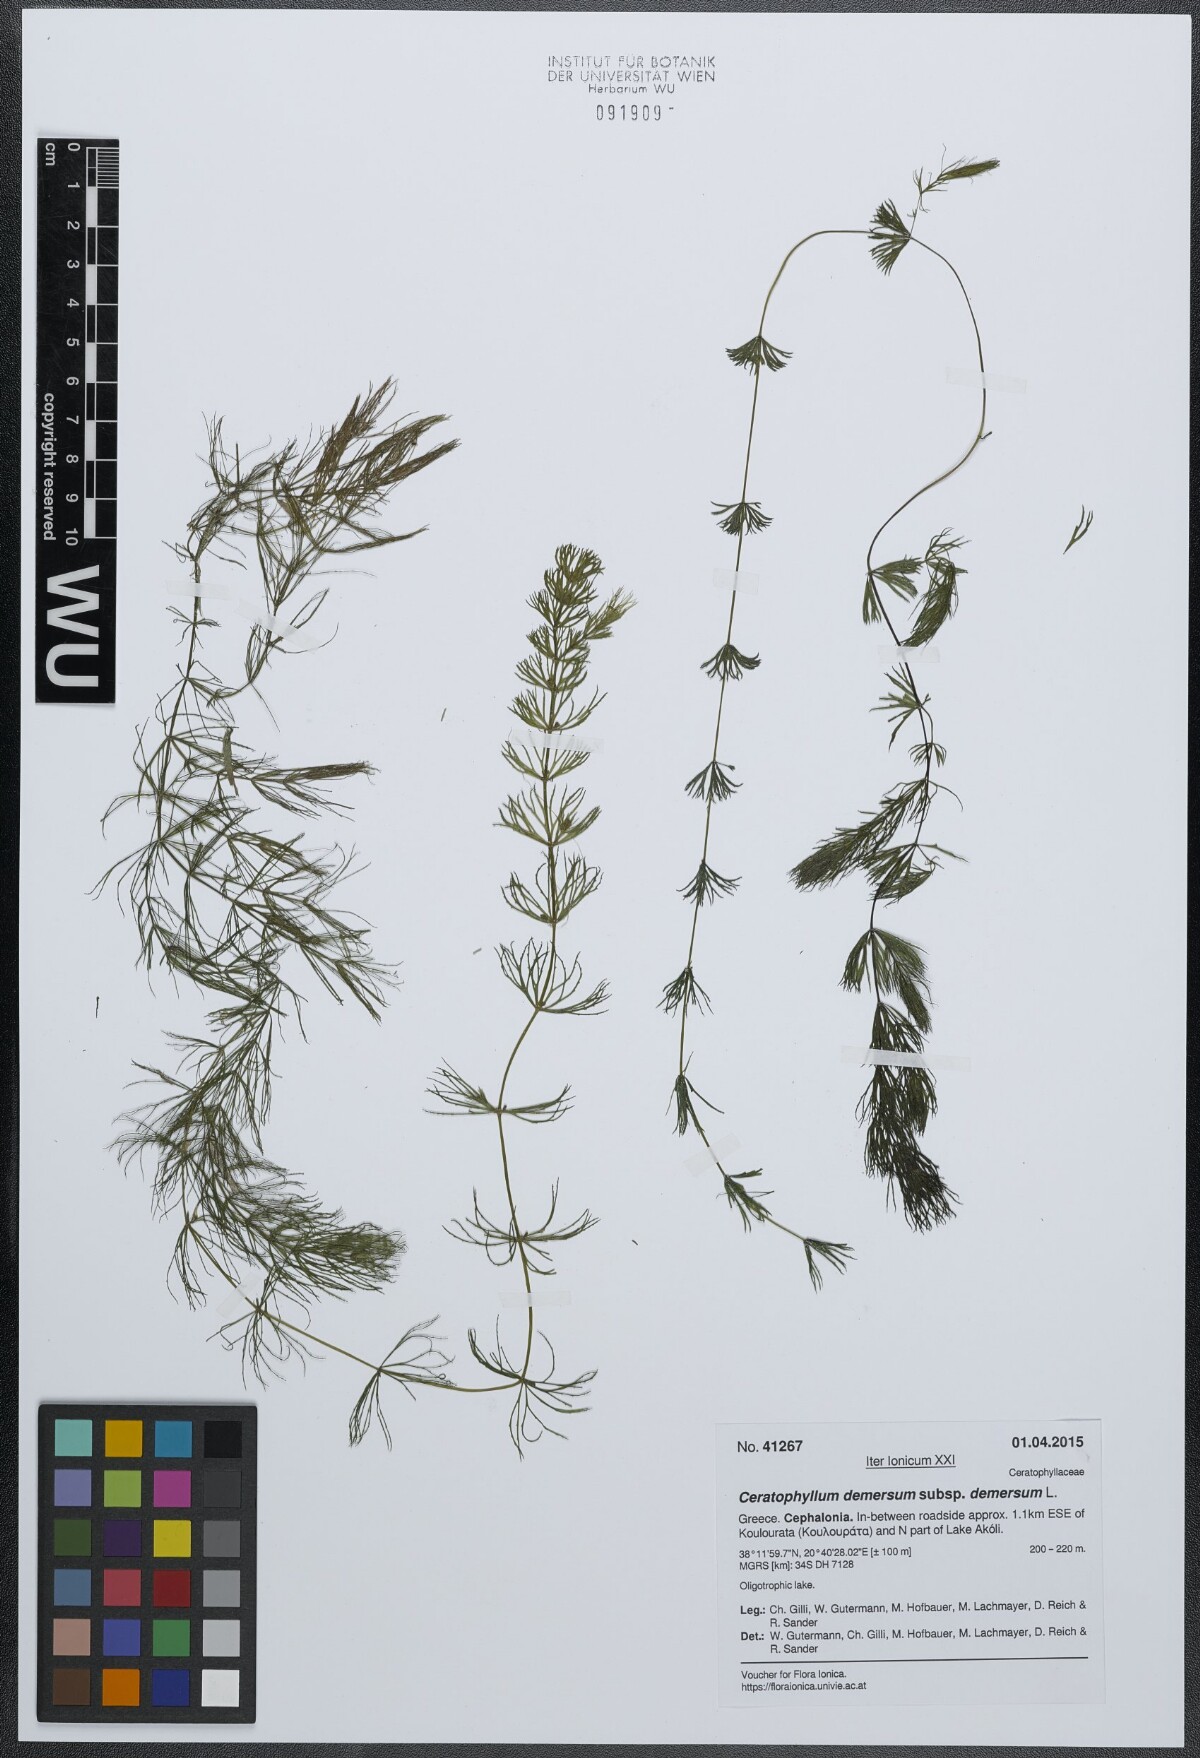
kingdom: Plantae
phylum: Tracheophyta
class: Magnoliopsida
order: Ceratophyllales
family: Ceratophyllaceae
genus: Ceratophyllum
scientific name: Ceratophyllum demersum
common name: Rigid hornwort
